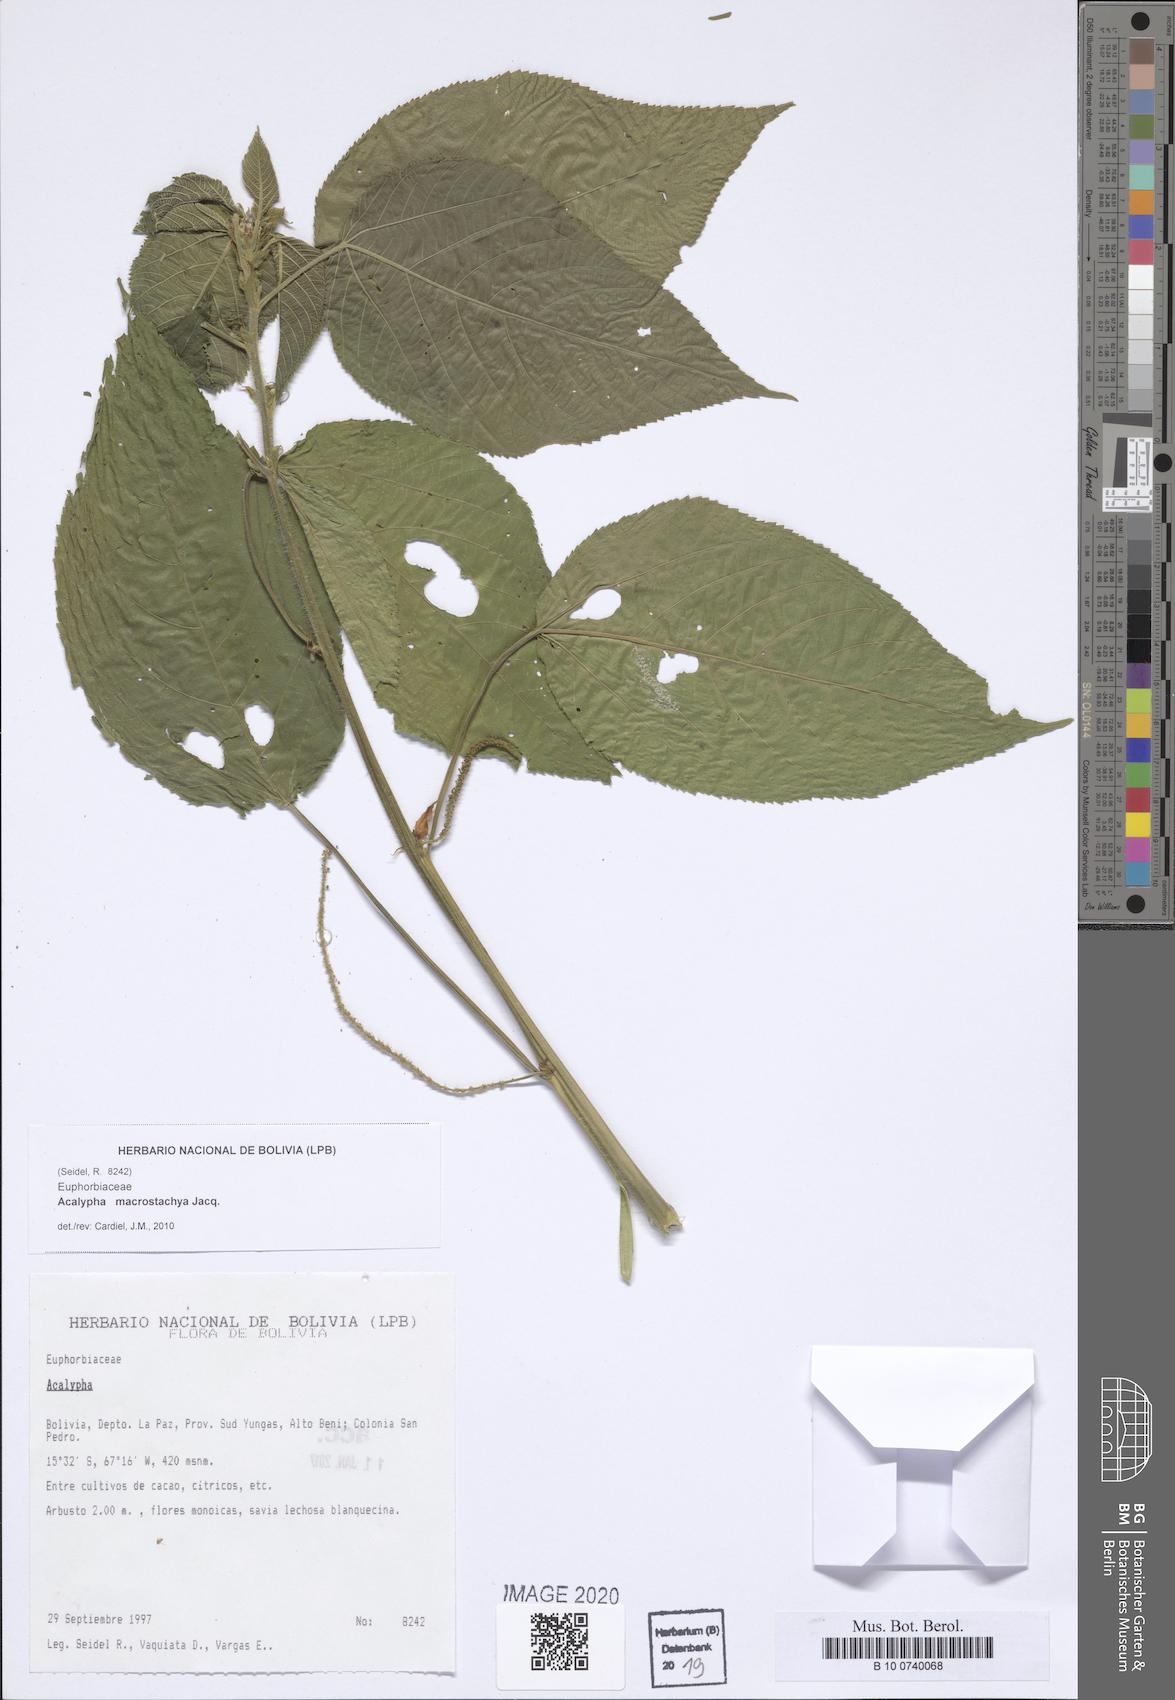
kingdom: Plantae
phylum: Tracheophyta
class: Magnoliopsida
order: Malpighiales
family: Euphorbiaceae
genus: Acalypha
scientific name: Acalypha macrostachya
